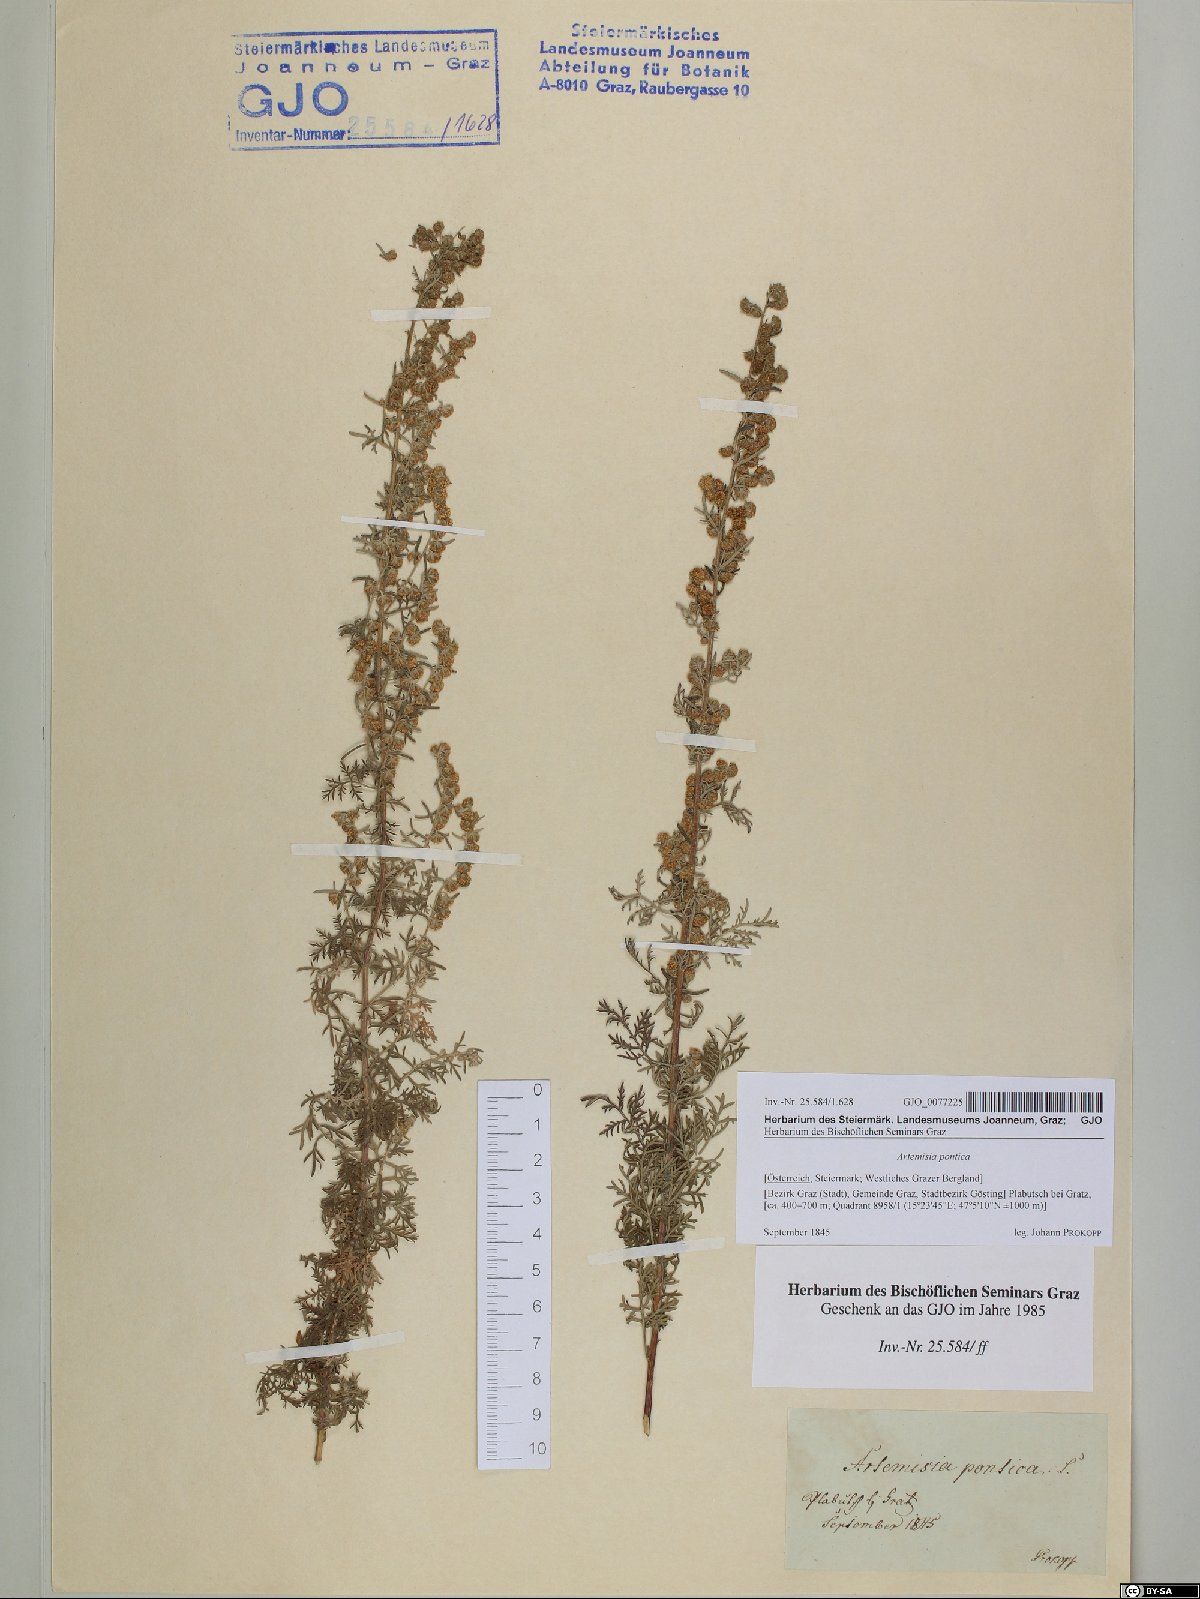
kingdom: Plantae
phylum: Tracheophyta
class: Magnoliopsida
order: Asterales
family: Asteraceae
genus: Artemisia
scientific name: Artemisia pontica
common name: Roman wormwood
